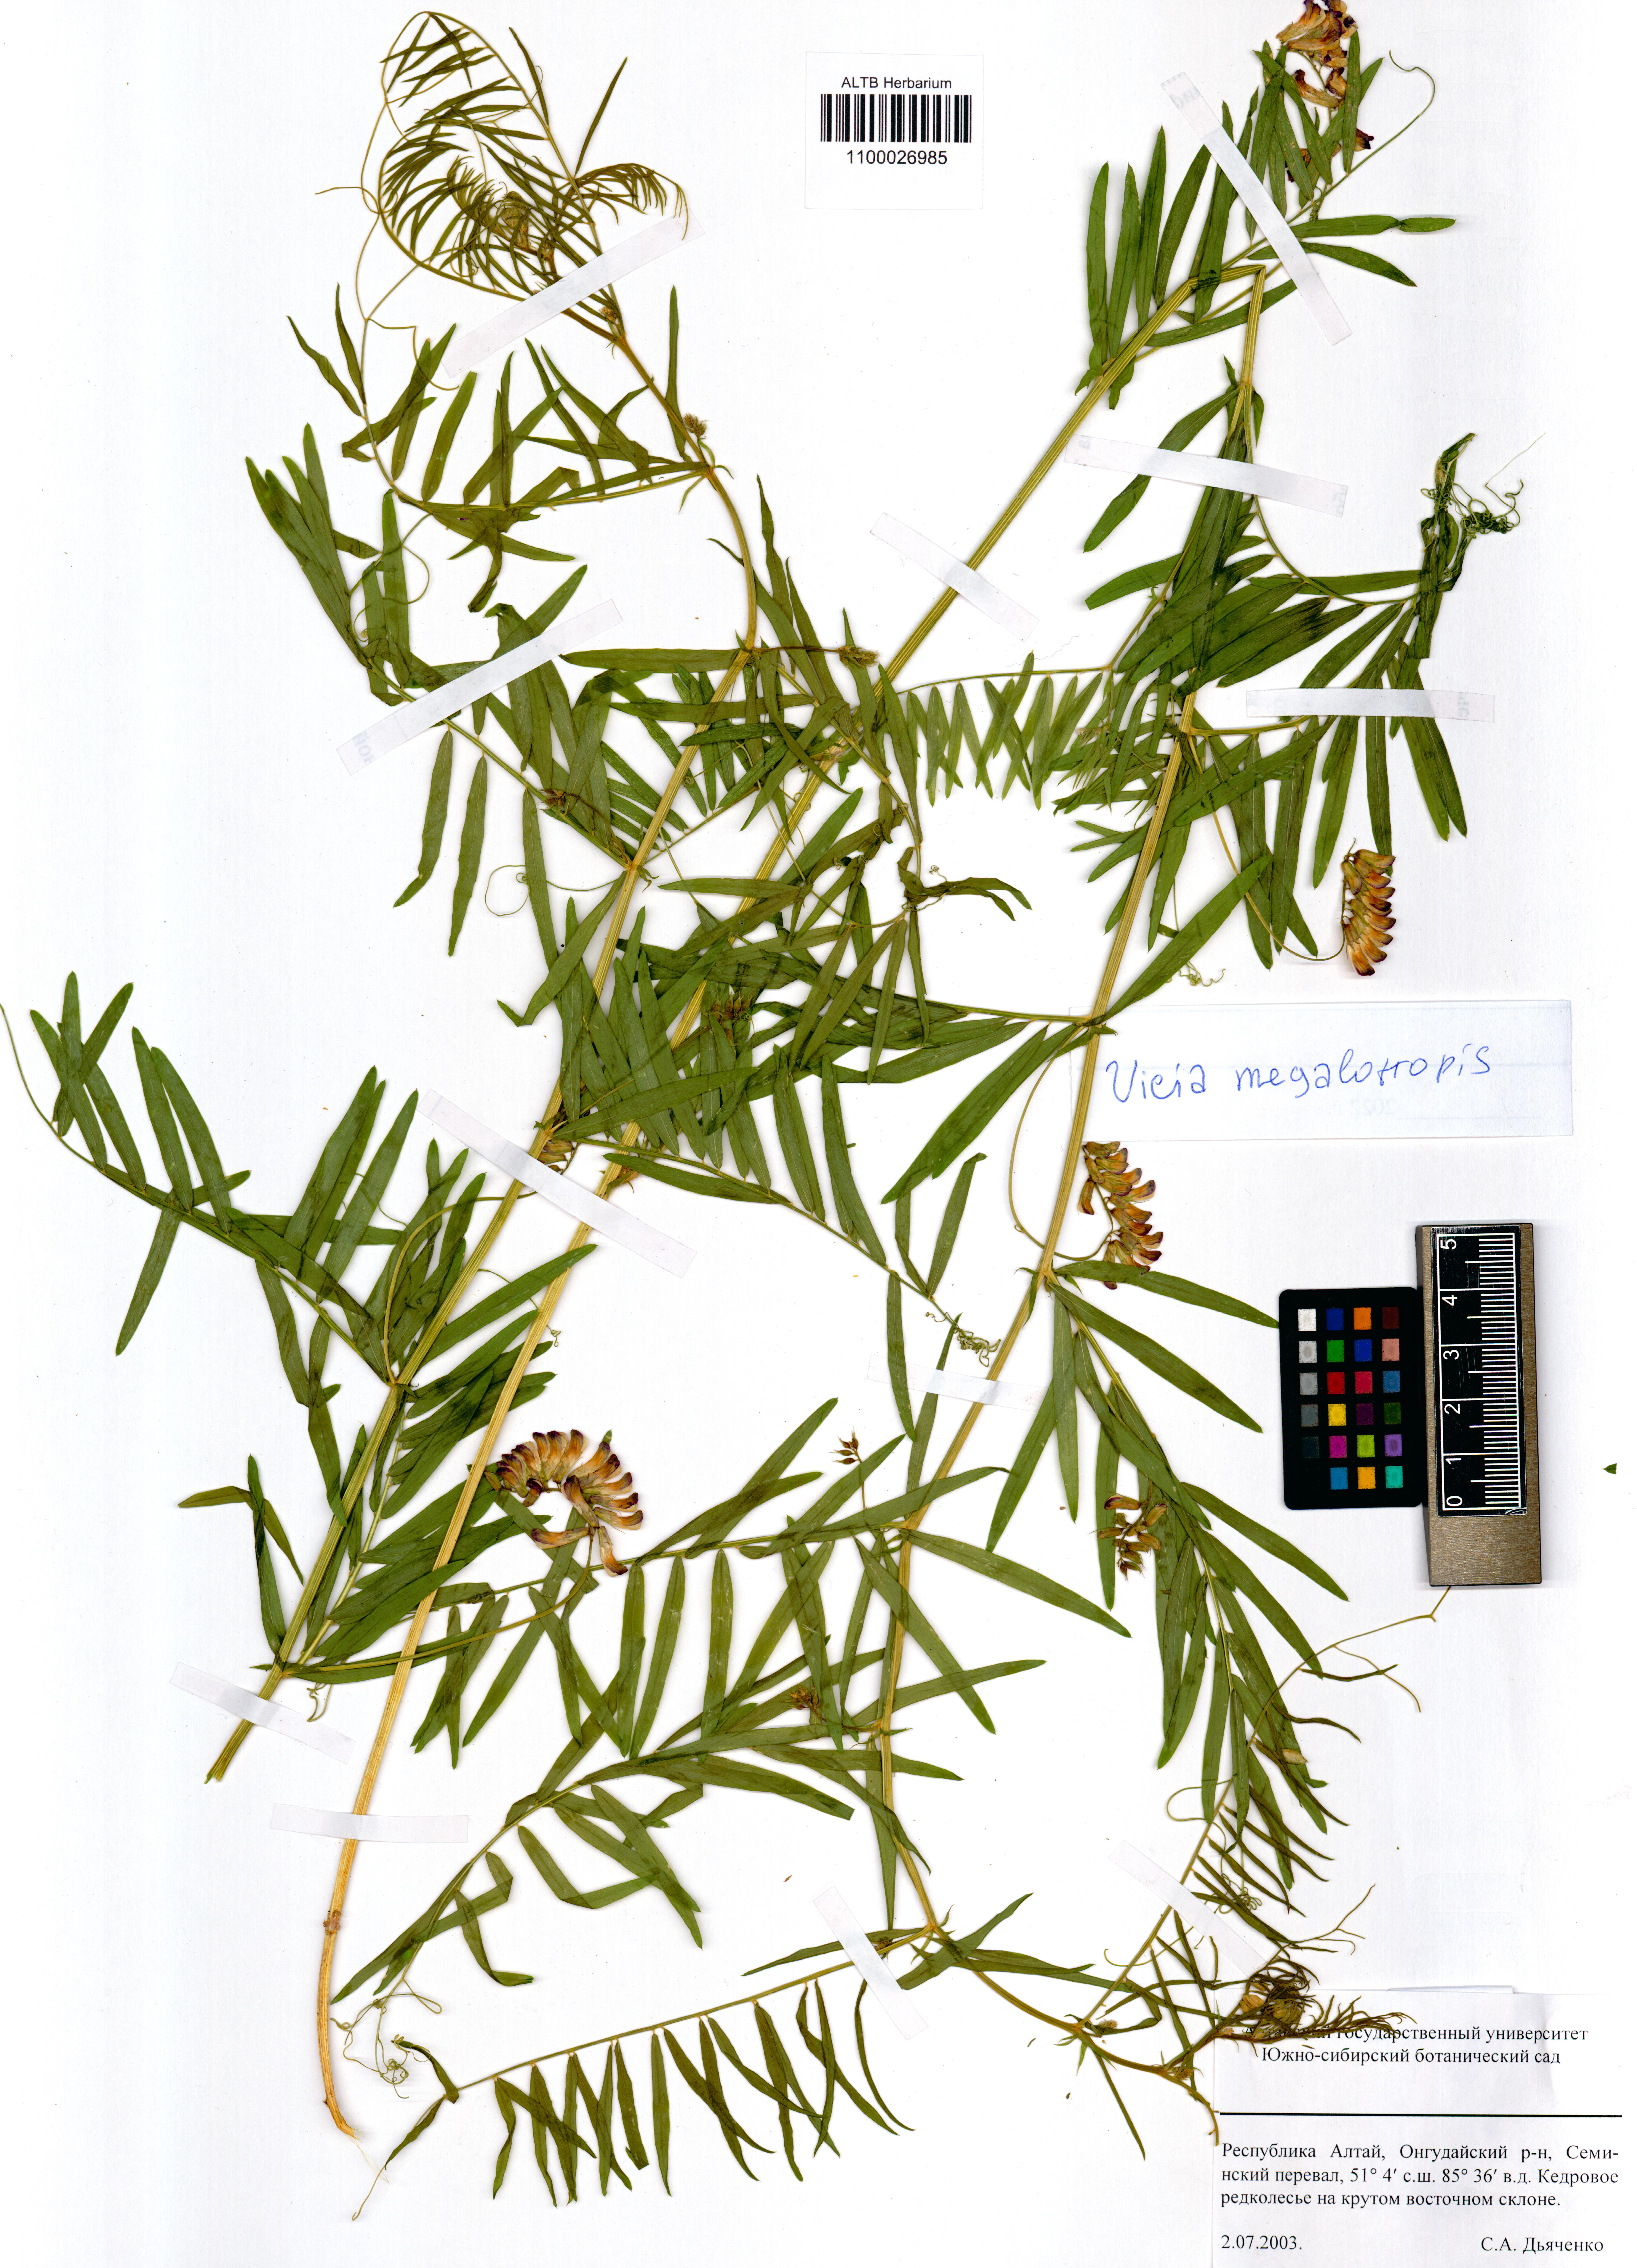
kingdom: Plantae
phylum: Tracheophyta
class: Magnoliopsida
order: Fabales
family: Fabaceae
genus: Vicia
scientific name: Vicia megalotropis
